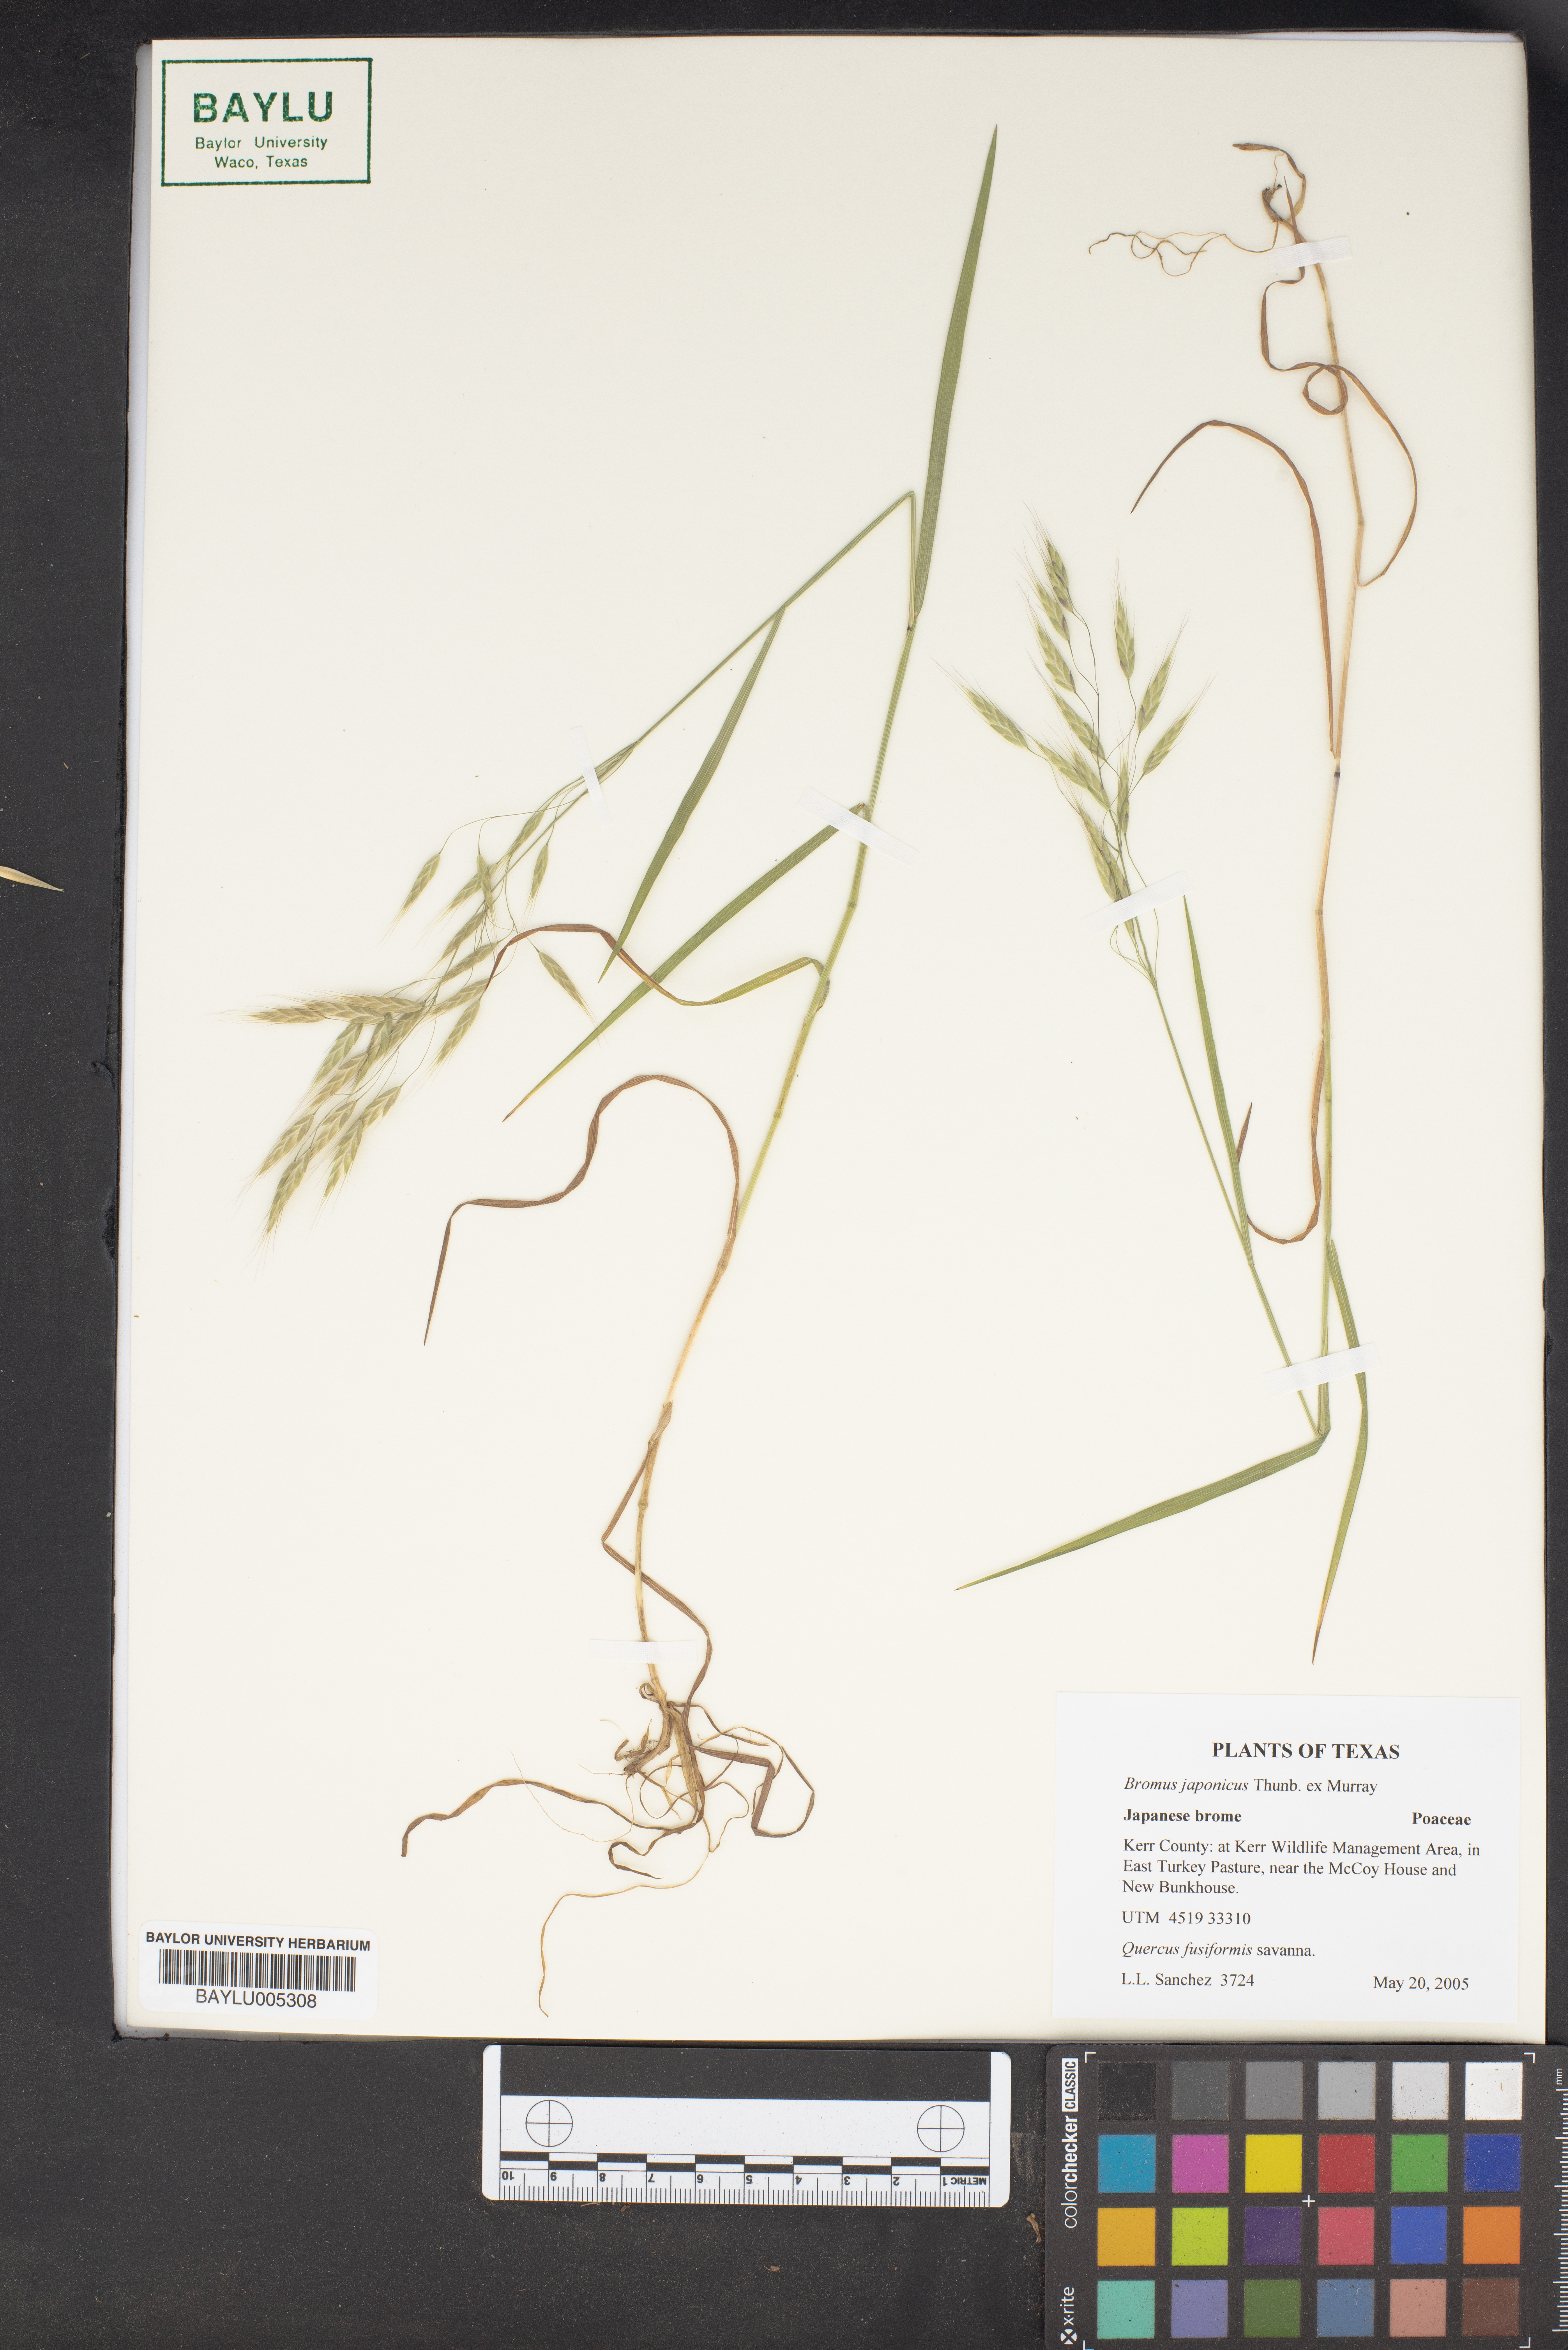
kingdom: Plantae
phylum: Tracheophyta
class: Liliopsida
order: Poales
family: Poaceae
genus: Bromus
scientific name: Bromus japonicus
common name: Japanese brome
